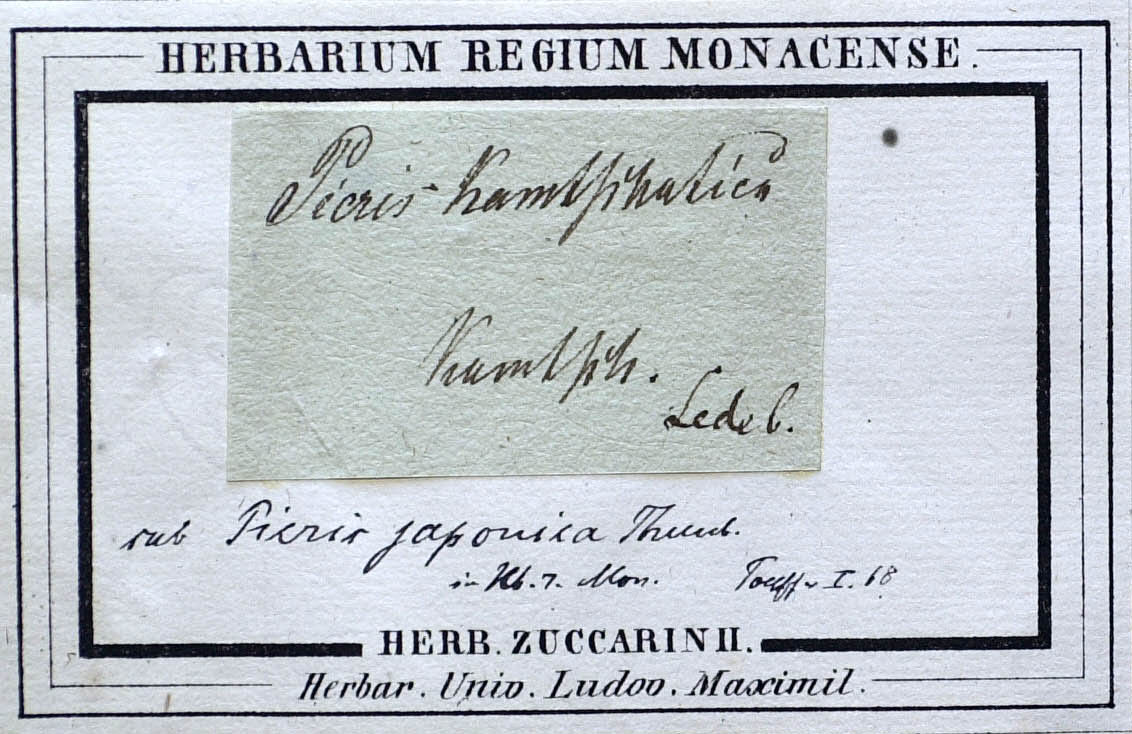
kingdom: Plantae
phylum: Tracheophyta
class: Magnoliopsida
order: Asterales
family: Asteraceae
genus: Picris
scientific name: Picris japonica
